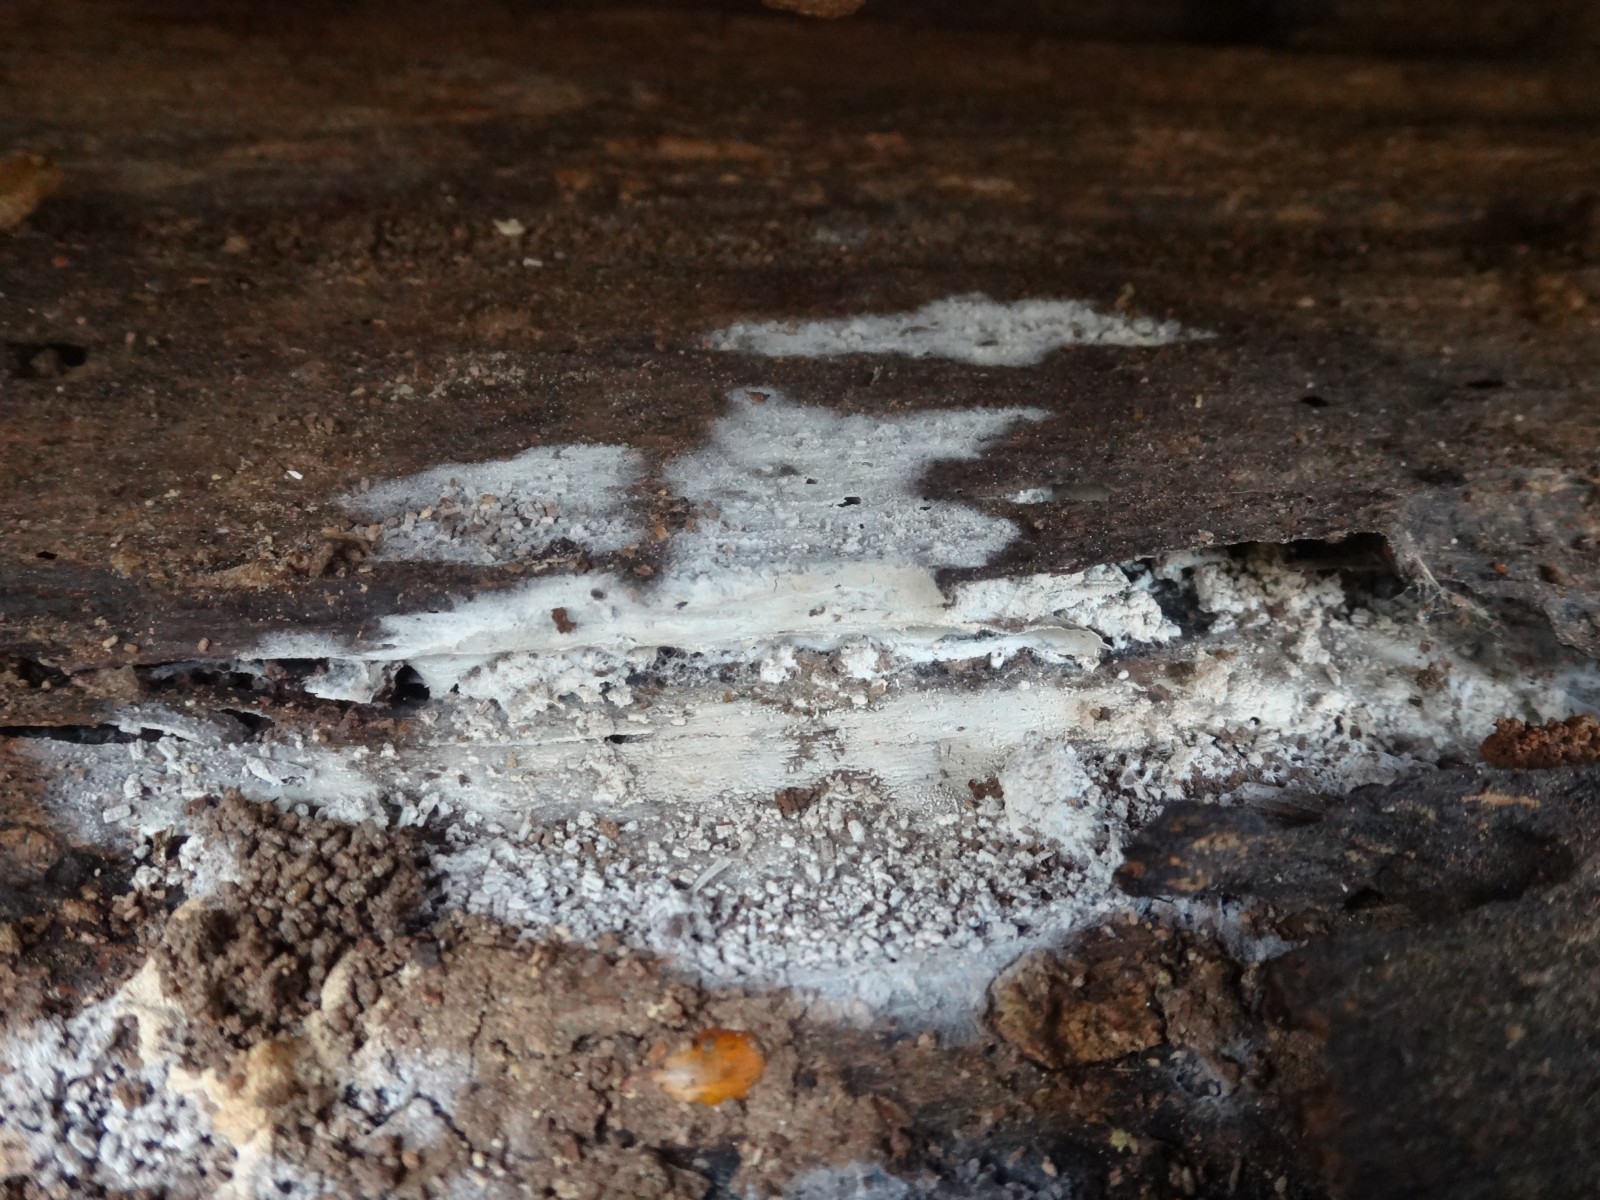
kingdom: Fungi
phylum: Basidiomycota
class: Agaricomycetes
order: Cantharellales
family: Hydnaceae
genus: Sistotrema
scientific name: Sistotrema brinkmannii
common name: bønnesporet kroneskorpe
